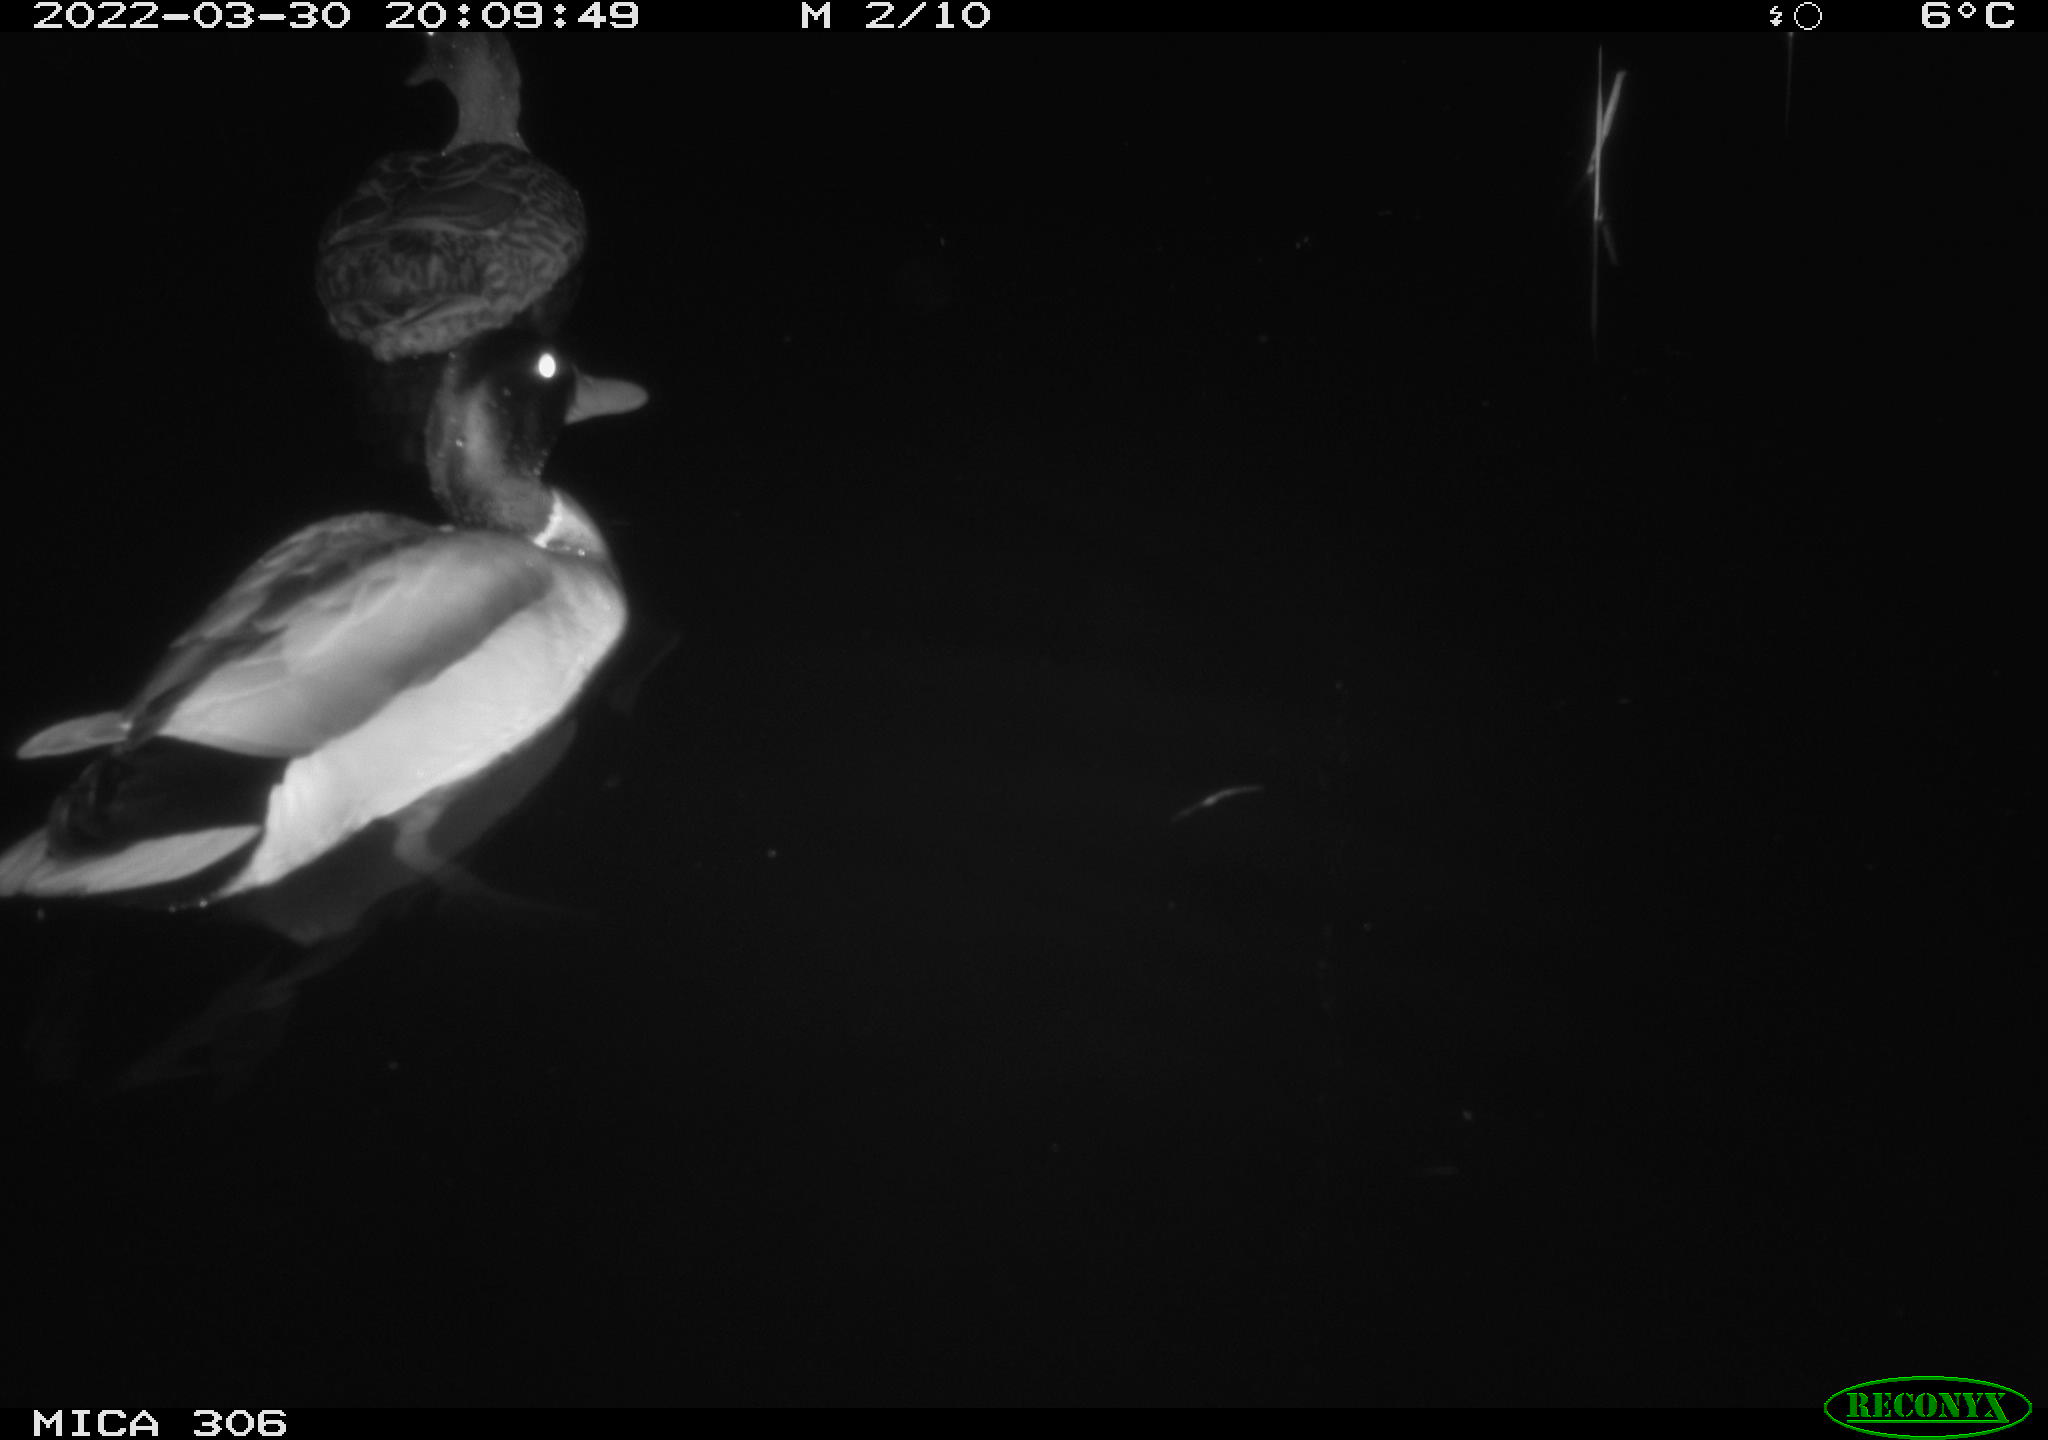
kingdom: Animalia
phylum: Chordata
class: Aves
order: Anseriformes
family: Anatidae
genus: Anas
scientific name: Anas platyrhynchos
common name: Mallard
